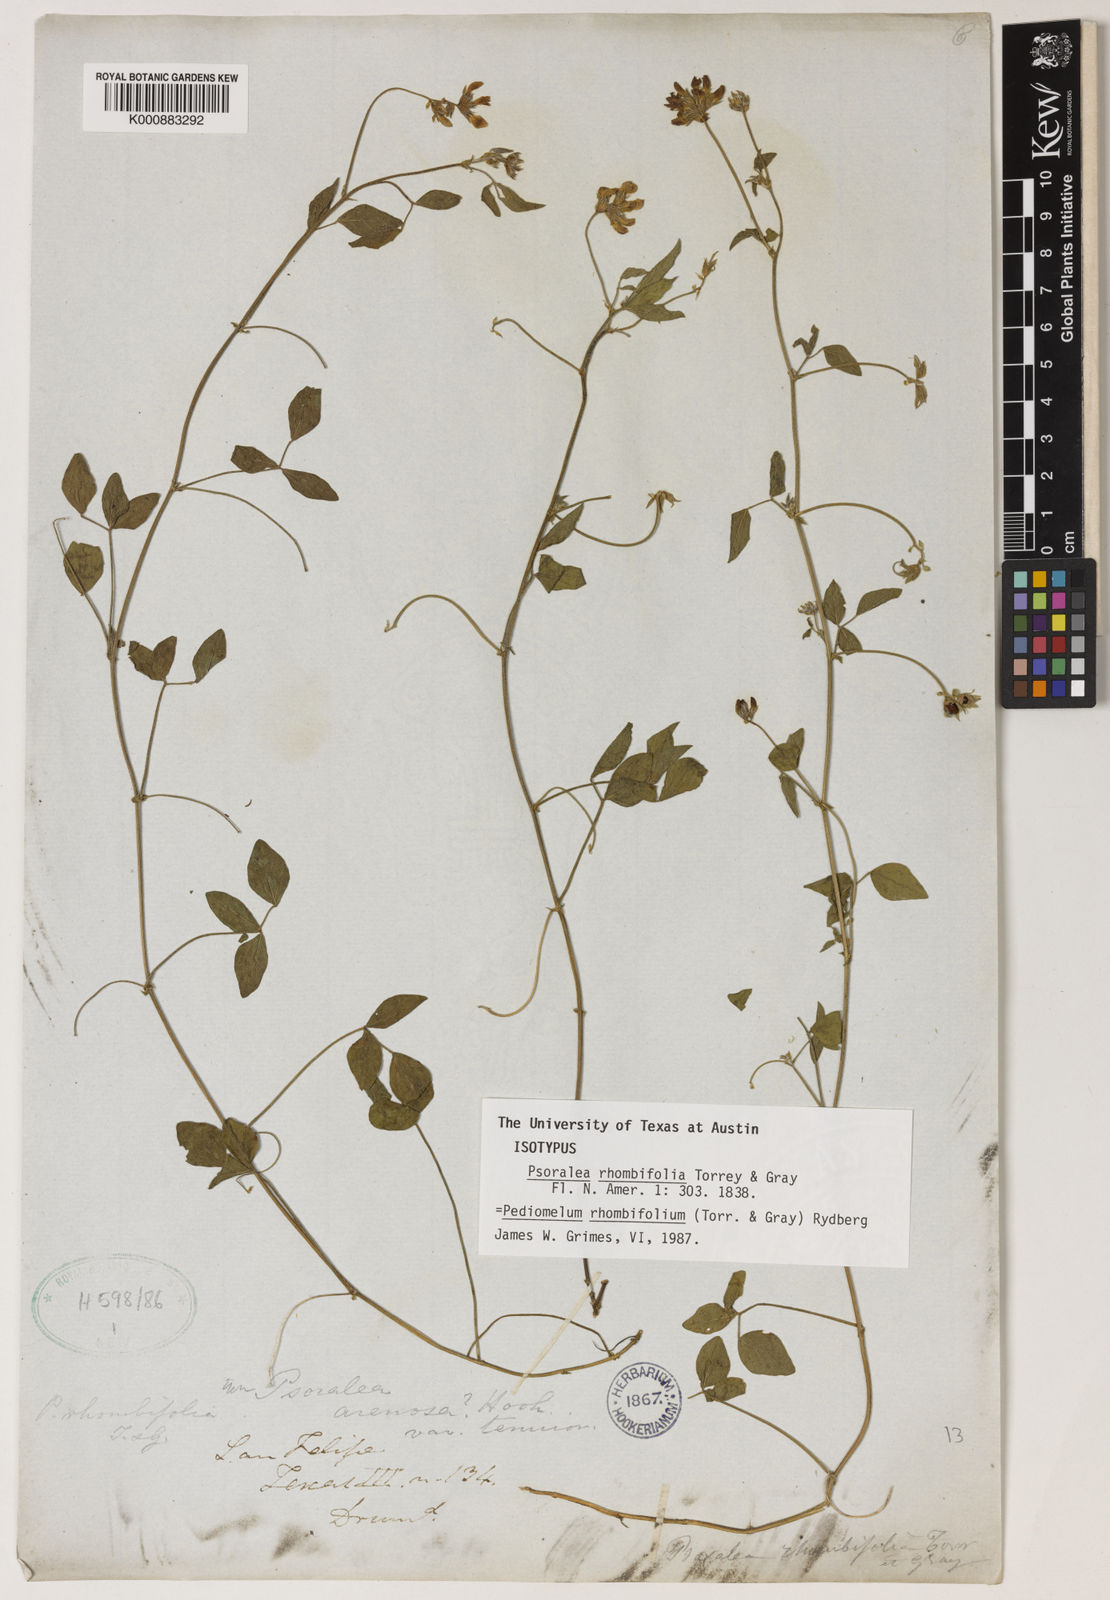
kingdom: Plantae
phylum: Tracheophyta
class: Magnoliopsida
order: Fabales
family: Fabaceae
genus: Pediomelum
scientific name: Pediomelum rhombifolium
